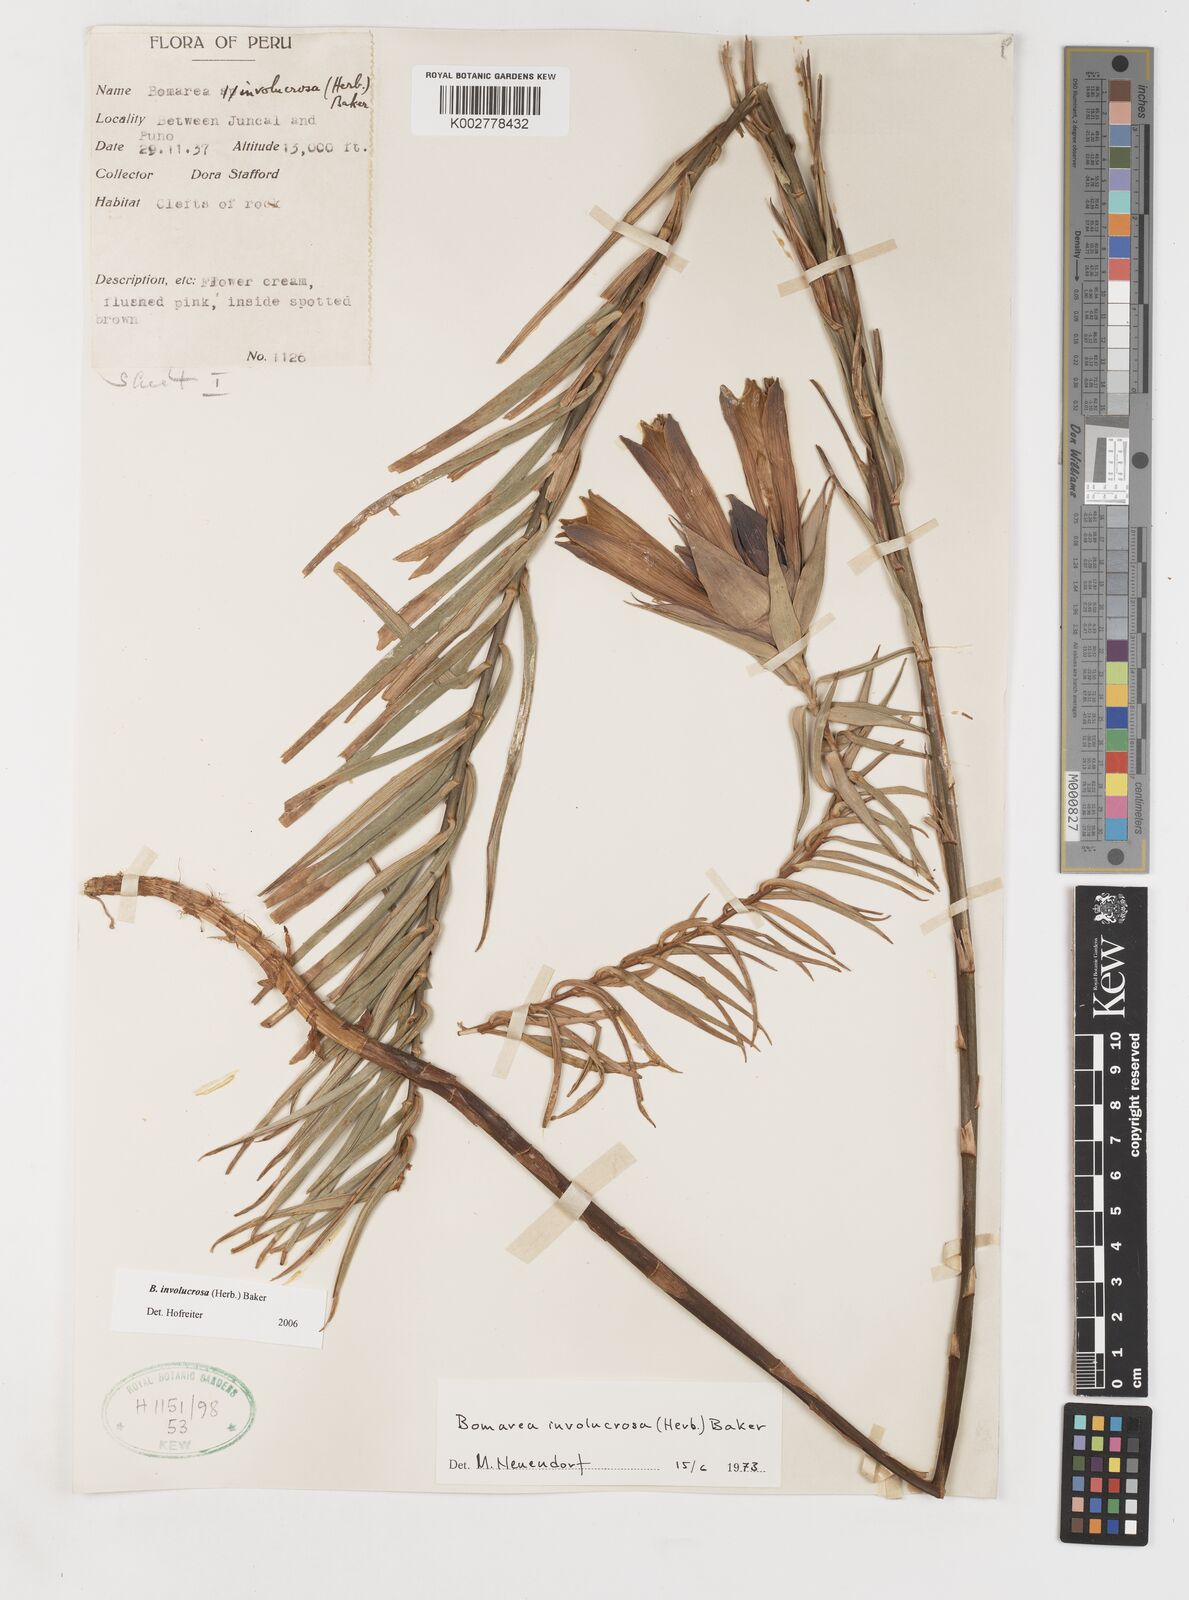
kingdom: Plantae
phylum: Tracheophyta
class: Liliopsida
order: Liliales
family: Alstroemeriaceae
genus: Bomarea
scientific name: Bomarea involucrosa
